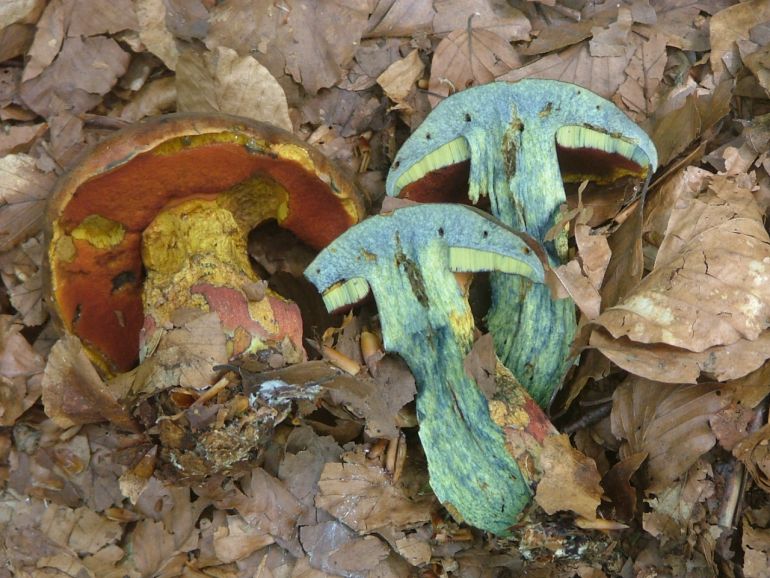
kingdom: Fungi
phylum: Basidiomycota
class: Agaricomycetes
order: Boletales
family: Boletaceae
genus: Neoboletus
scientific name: Neoboletus erythropus
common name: punktstokket indigorørhat
